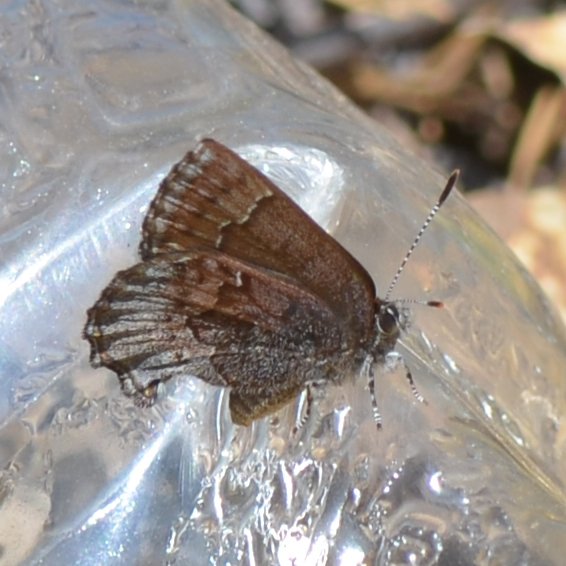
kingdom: Animalia
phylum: Arthropoda
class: Insecta
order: Lepidoptera
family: Lycaenidae
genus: Callophrys
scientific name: Callophrys polios
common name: Hoary Elfin
